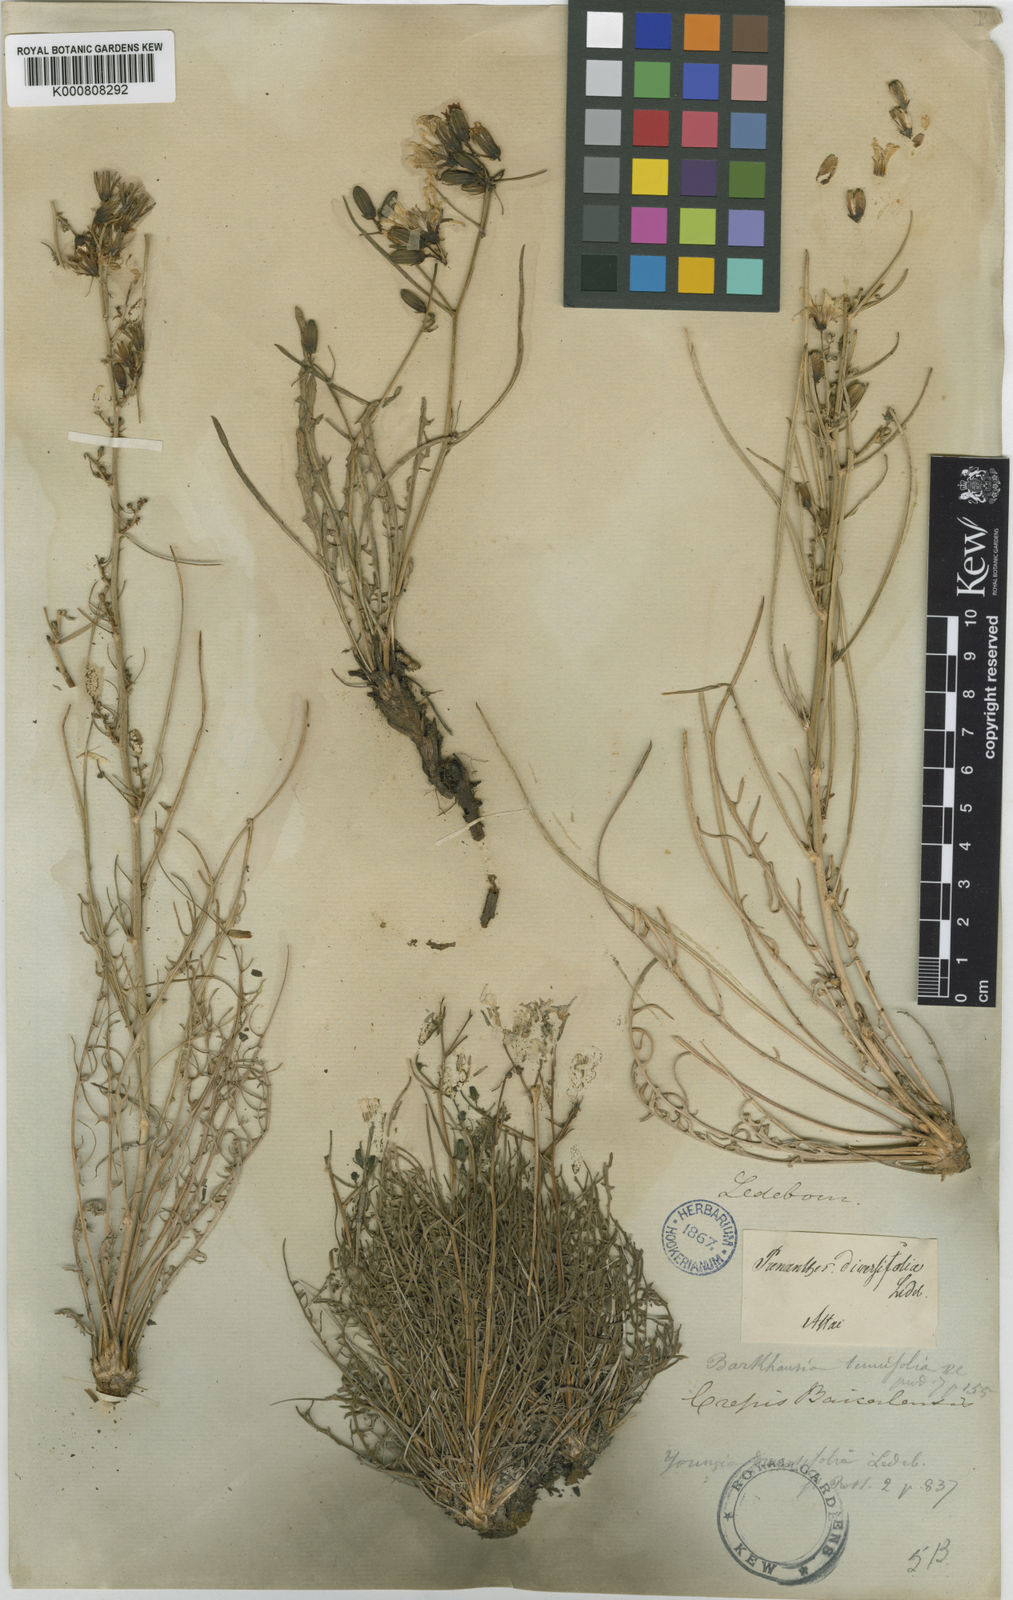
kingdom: Plantae
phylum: Tracheophyta
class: Magnoliopsida
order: Asterales
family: Asteraceae
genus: Crepidiastrum
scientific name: Crepidiastrum tenuifolium
